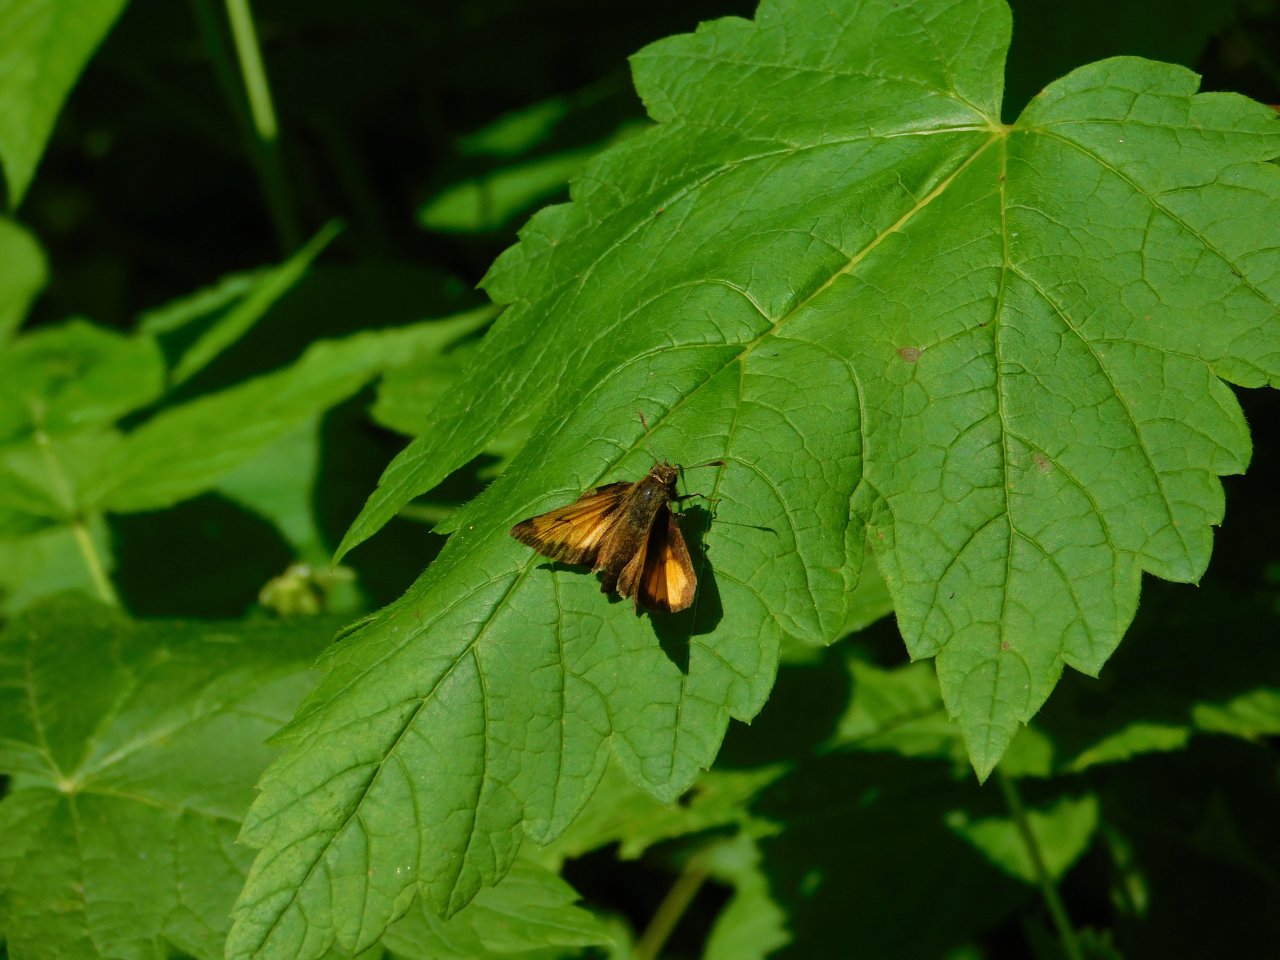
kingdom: Animalia
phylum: Arthropoda
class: Insecta
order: Lepidoptera
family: Hesperiidae
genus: Lon
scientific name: Lon hobomok
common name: Hobomok Skipper
